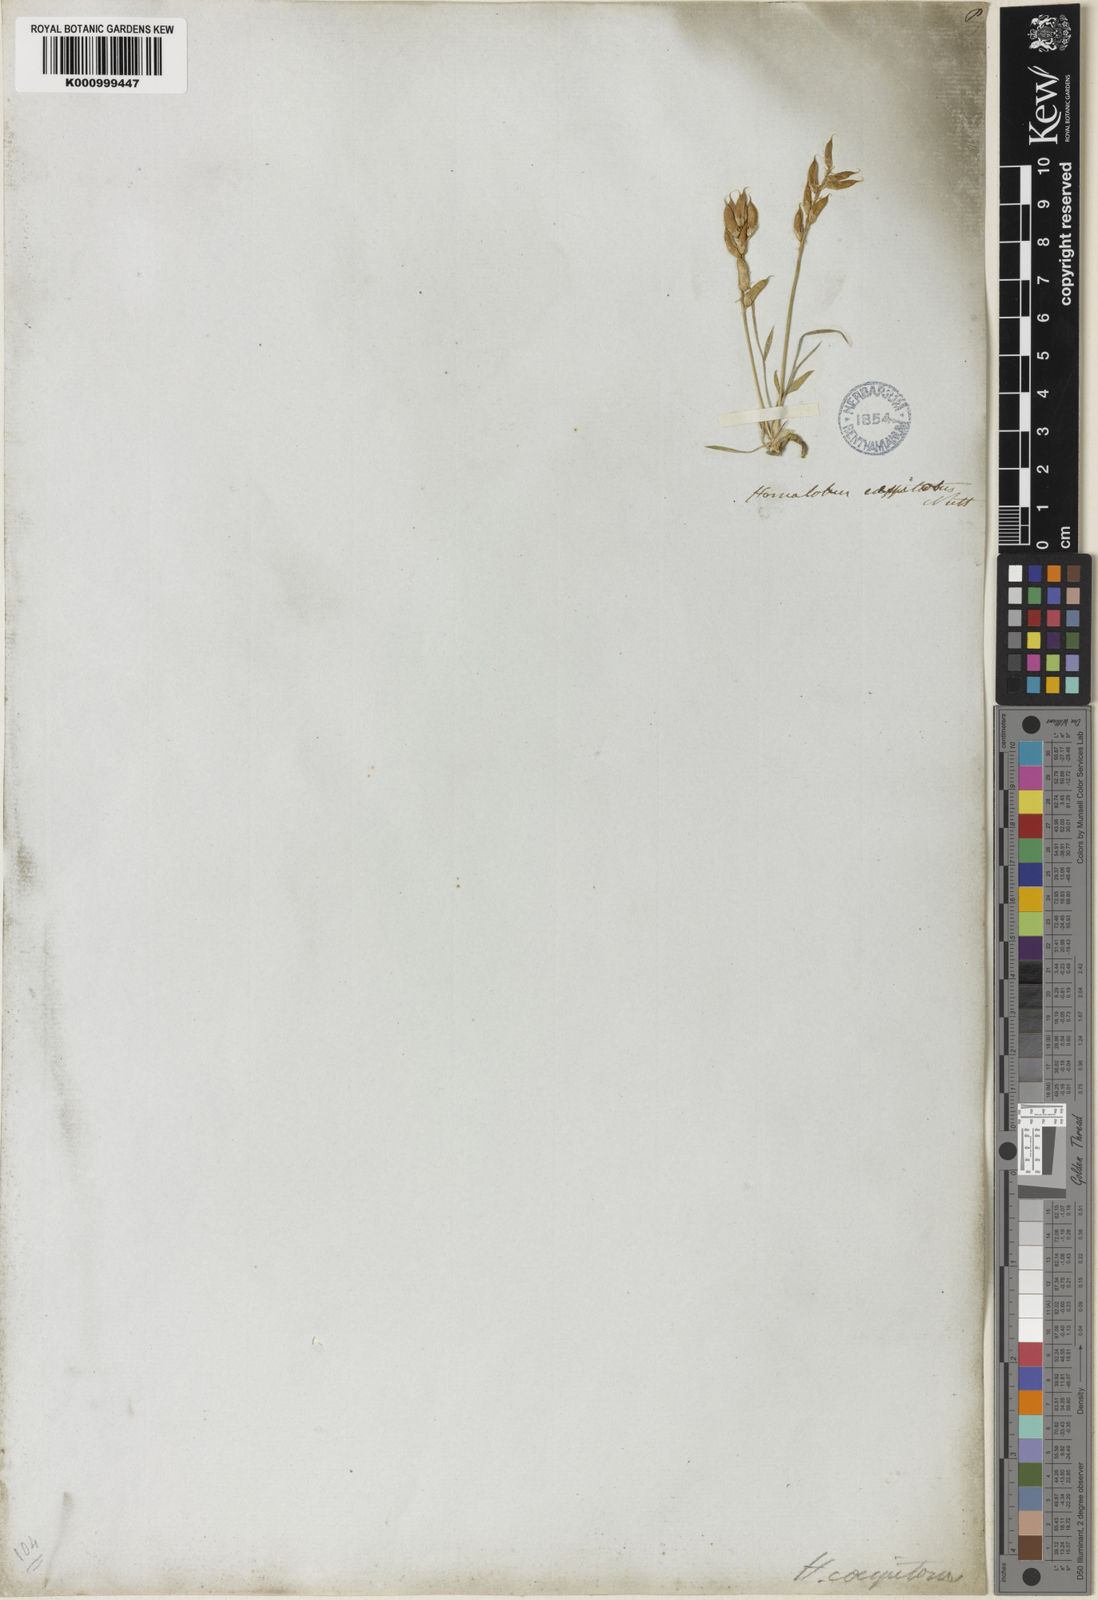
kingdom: Plantae
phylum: Tracheophyta
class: Magnoliopsida
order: Fabales
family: Fabaceae
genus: Oxytropis
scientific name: Oxytropis caespitosa
